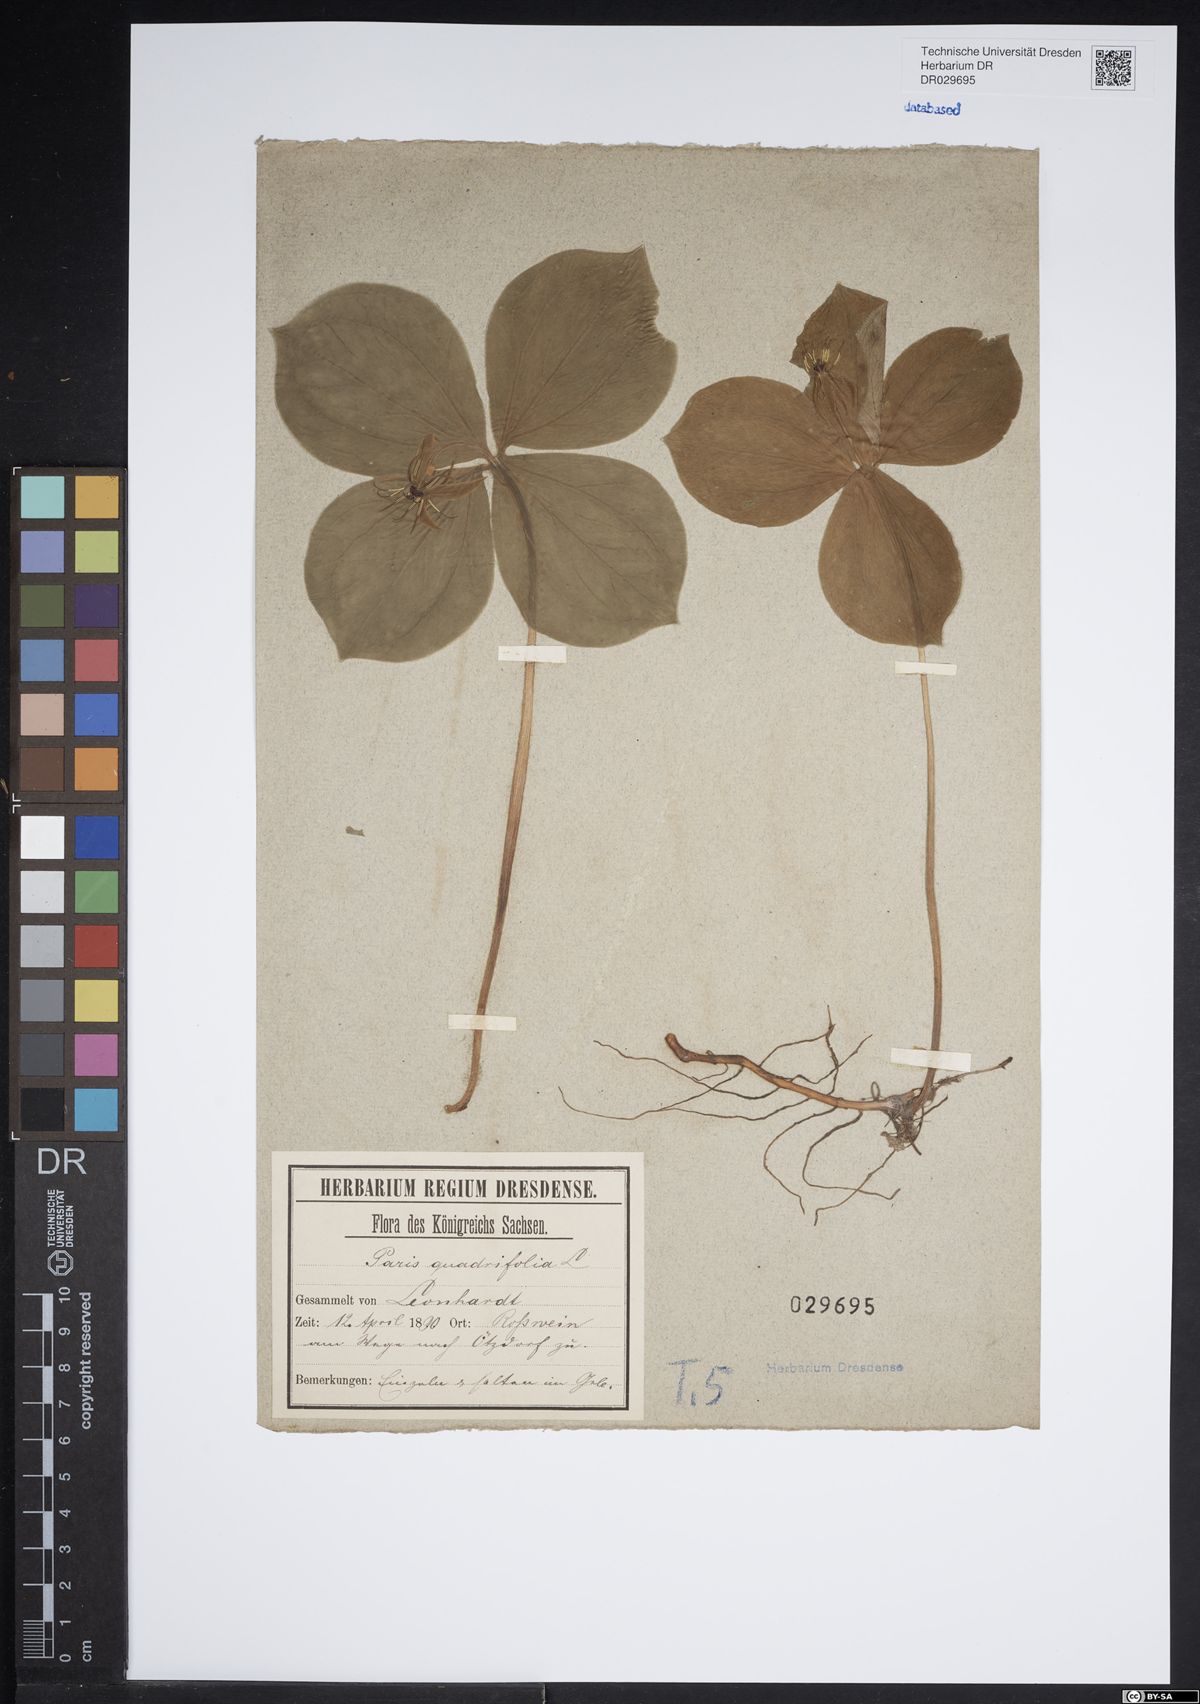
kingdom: Plantae
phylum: Tracheophyta
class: Liliopsida
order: Liliales
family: Melanthiaceae
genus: Paris
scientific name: Paris quadrifolia
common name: Herb-paris
